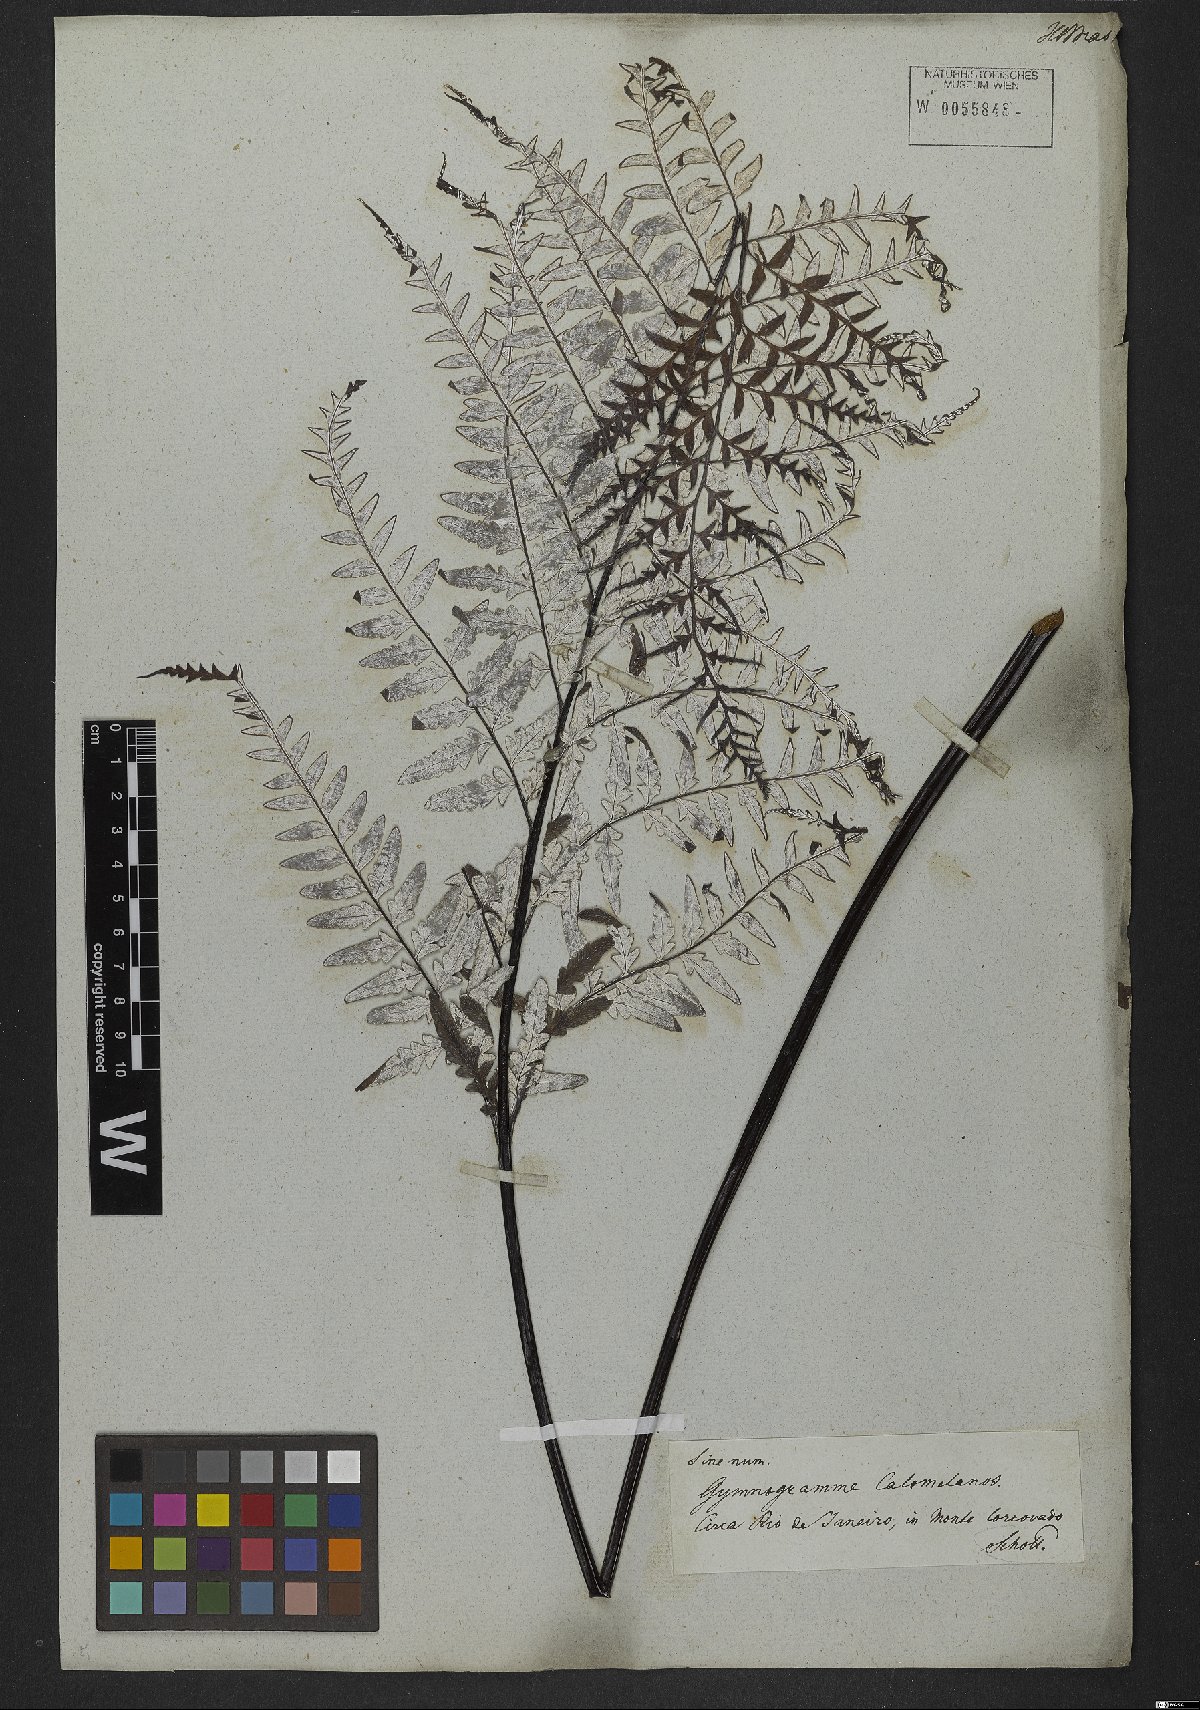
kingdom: Plantae
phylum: Tracheophyta
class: Polypodiopsida
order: Polypodiales
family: Pteridaceae
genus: Pityrogramma
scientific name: Pityrogramma calomelanos
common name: Dixie silverback fern
